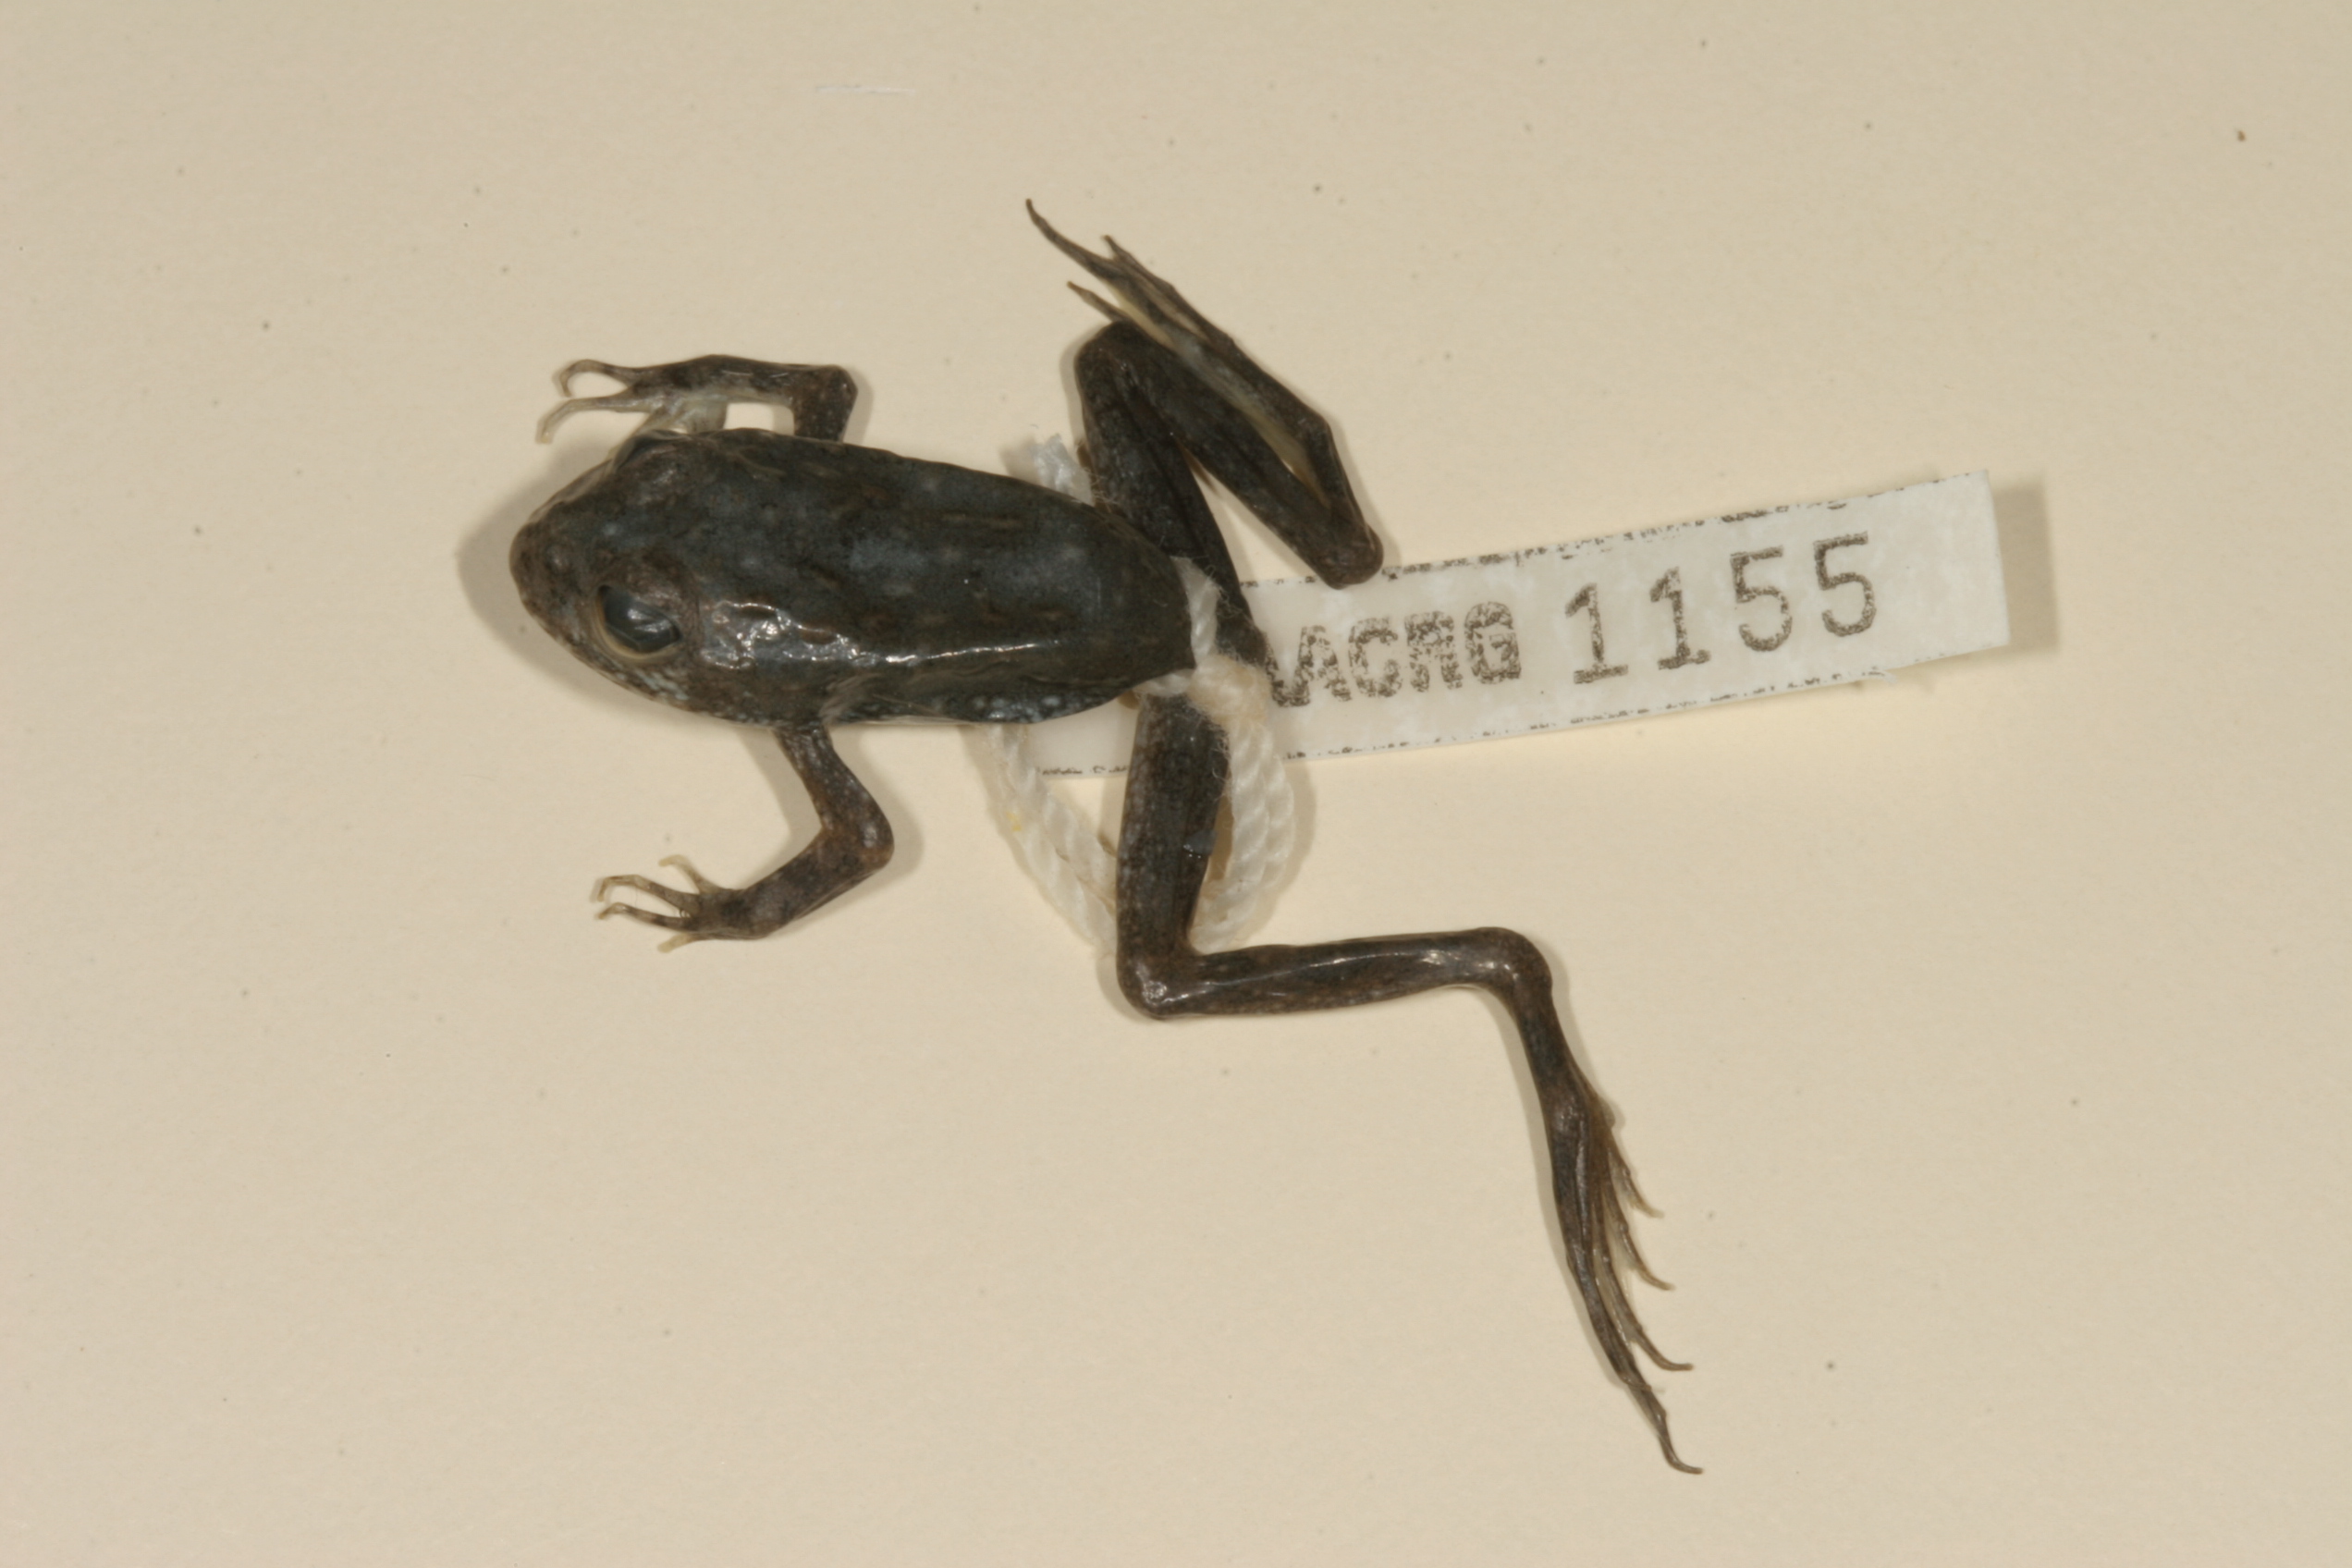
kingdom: Animalia
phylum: Chordata
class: Amphibia
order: Anura
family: Pyxicephalidae
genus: Amietia
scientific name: Amietia vertebralis
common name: Drakensberg stream frog
